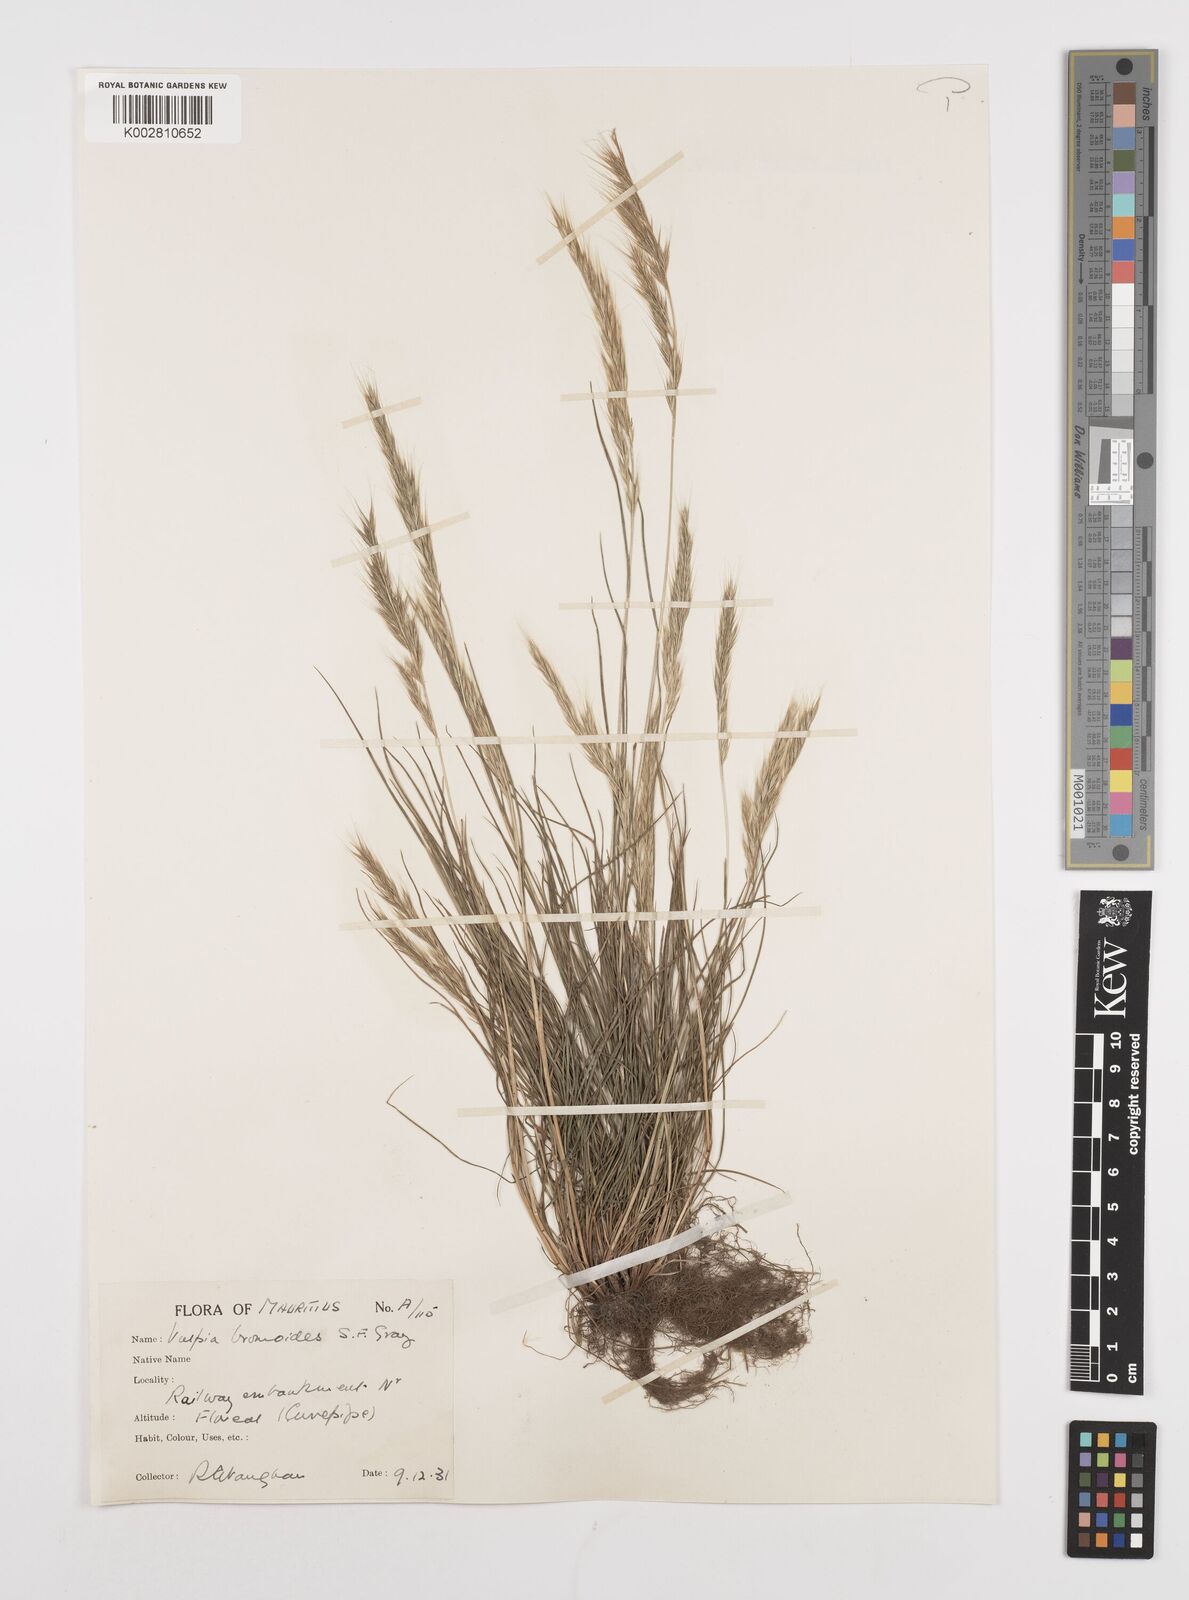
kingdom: Plantae
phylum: Tracheophyta
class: Liliopsida
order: Poales
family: Poaceae
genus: Festuca
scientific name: Festuca bromoides
